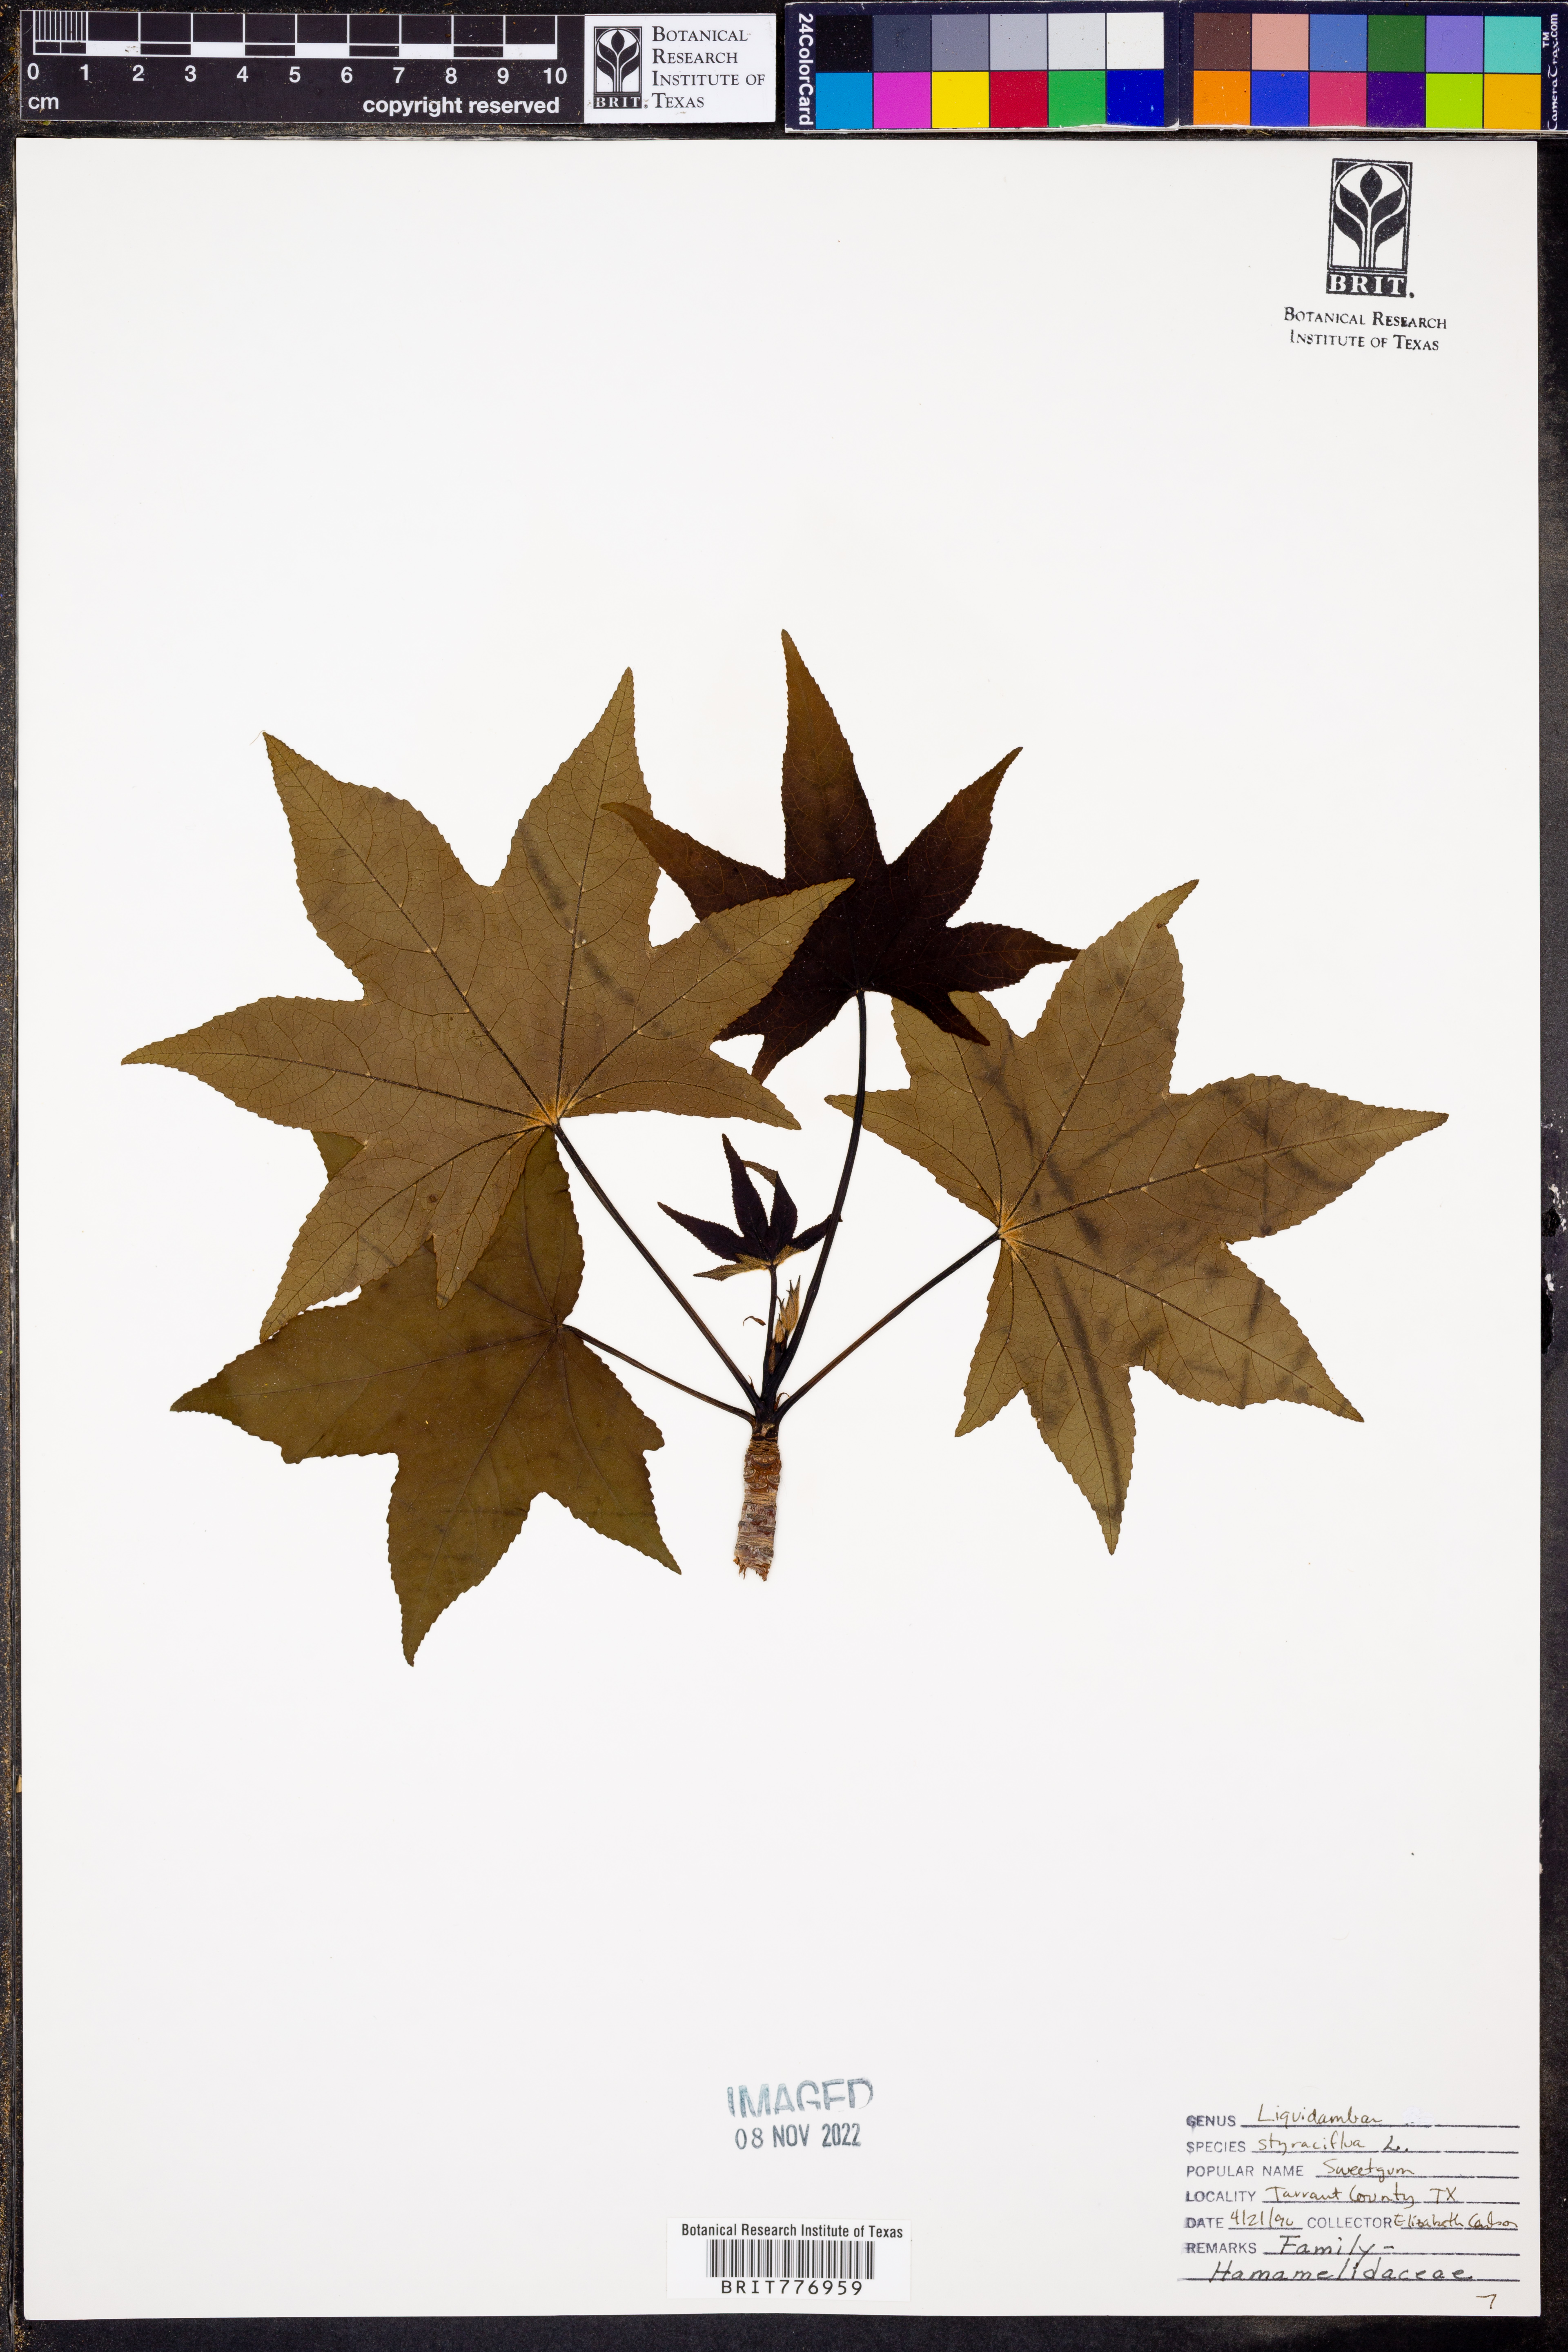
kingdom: Plantae
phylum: Tracheophyta
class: Magnoliopsida
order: Saxifragales
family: Altingiaceae
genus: Liquidambar
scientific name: Liquidambar styraciflua
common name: Sweet gum
